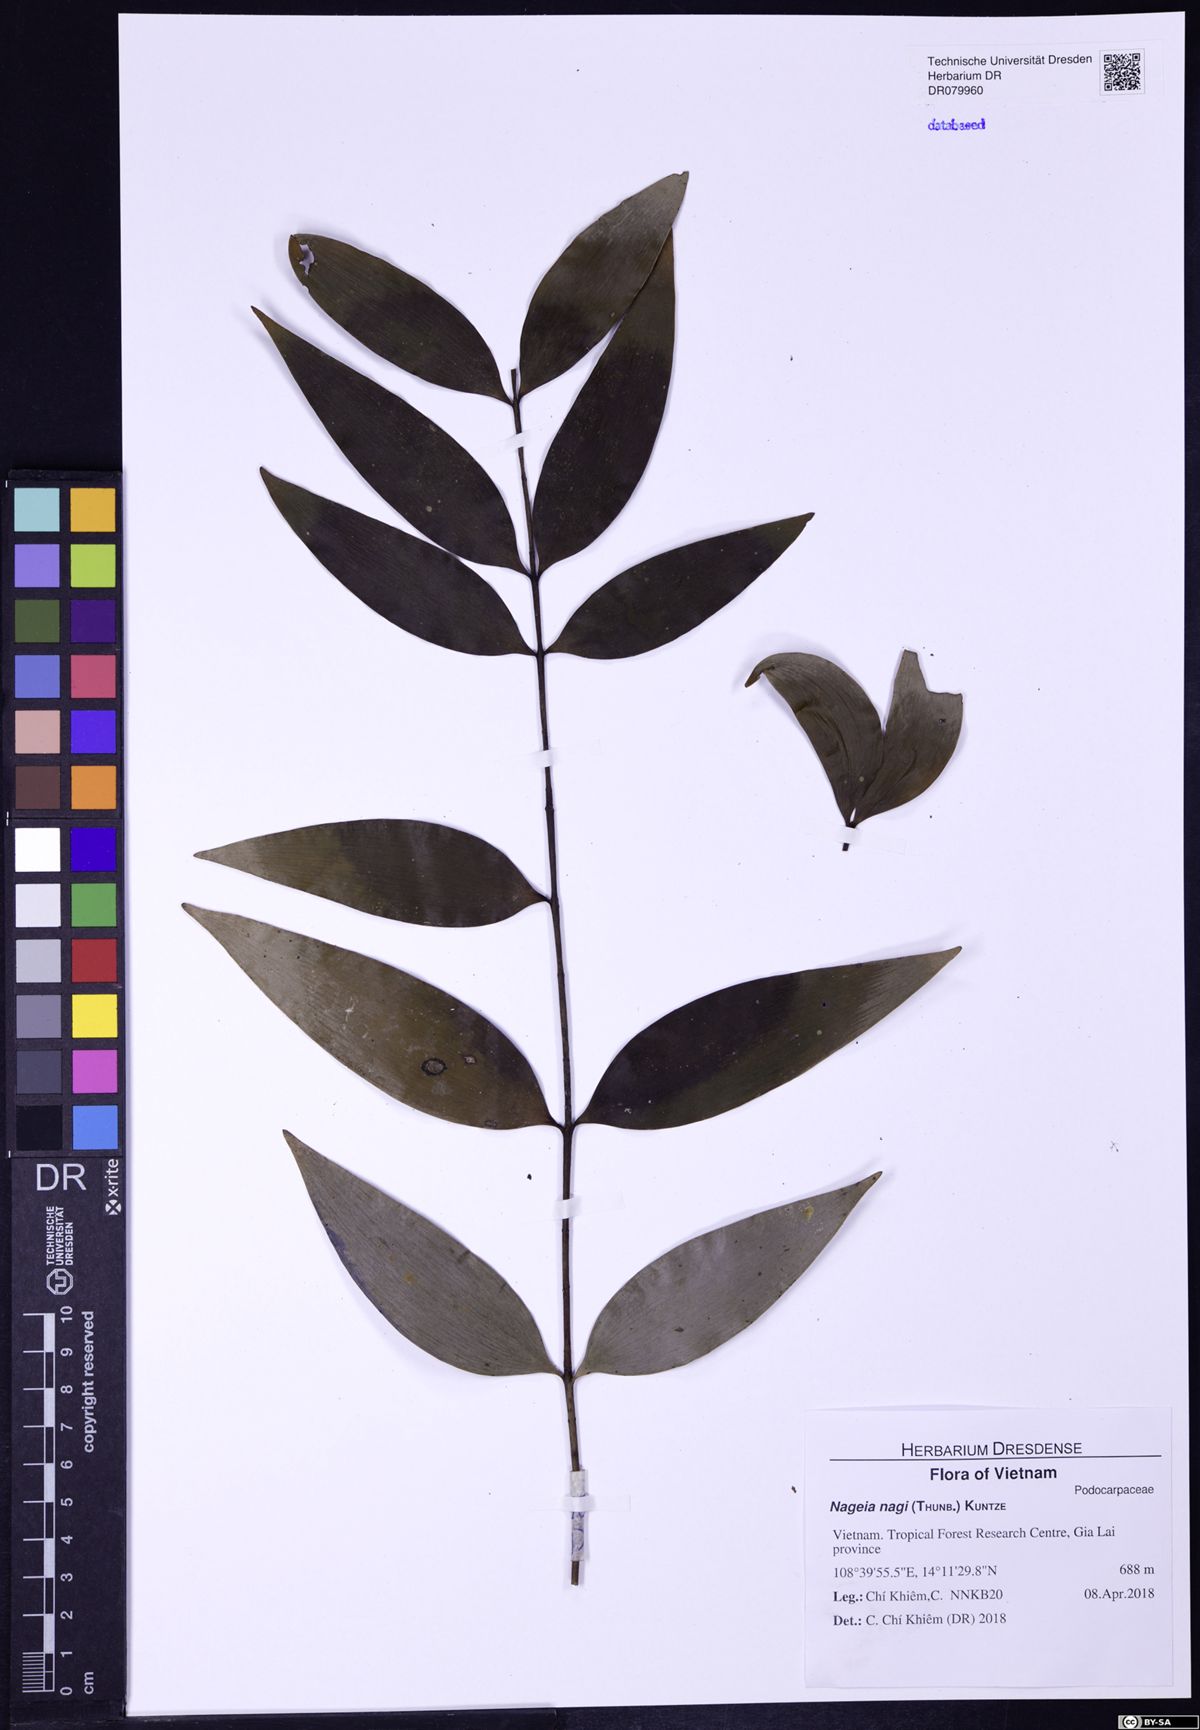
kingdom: Plantae
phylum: Tracheophyta
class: Pinopsida
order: Pinales
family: Podocarpaceae
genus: Nageia
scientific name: Nageia nagi
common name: Kaphal
